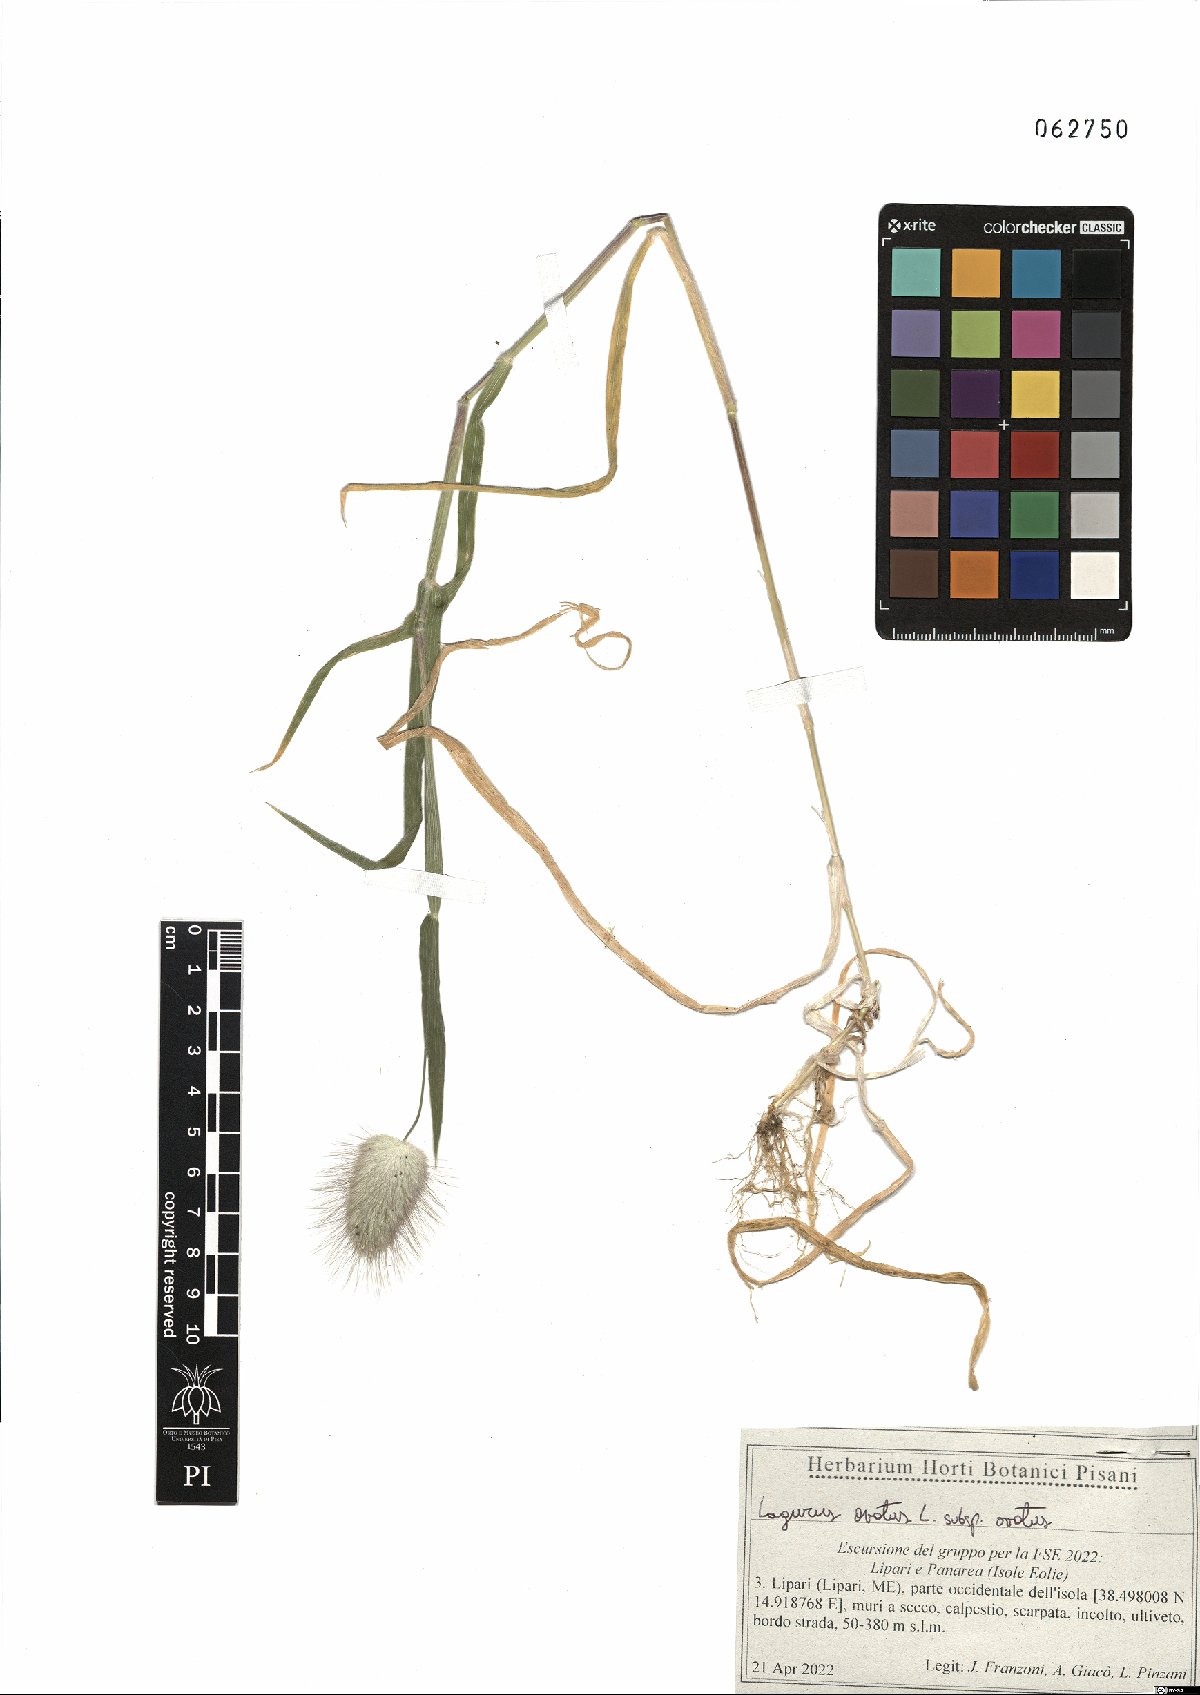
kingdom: Plantae
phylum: Tracheophyta
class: Liliopsida
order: Poales
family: Poaceae
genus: Lagurus
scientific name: Lagurus ovatus
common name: Hare's-tail
